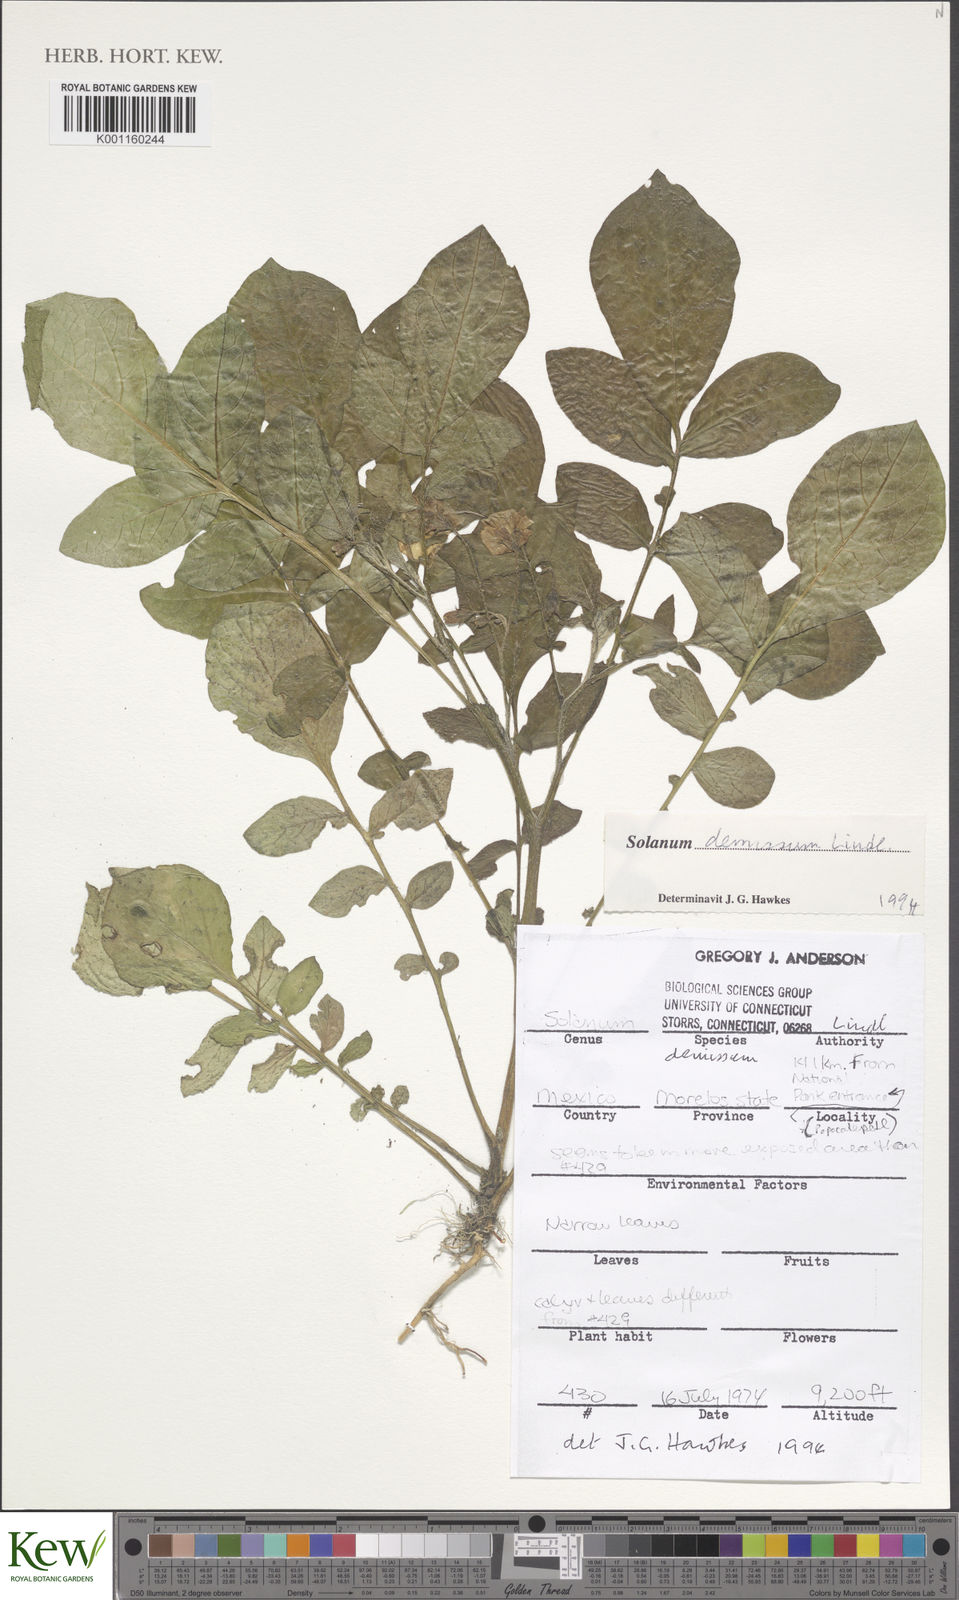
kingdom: Plantae
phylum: Tracheophyta
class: Magnoliopsida
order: Solanales
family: Solanaceae
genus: Solanum
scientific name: Solanum demissum
